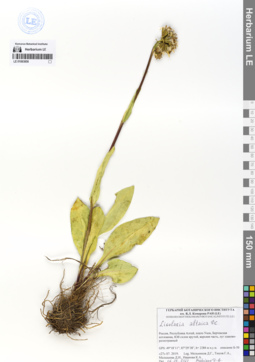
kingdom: Plantae
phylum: Tracheophyta
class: Magnoliopsida
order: Asterales
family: Asteraceae
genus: Ligularia
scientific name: Ligularia altaica
